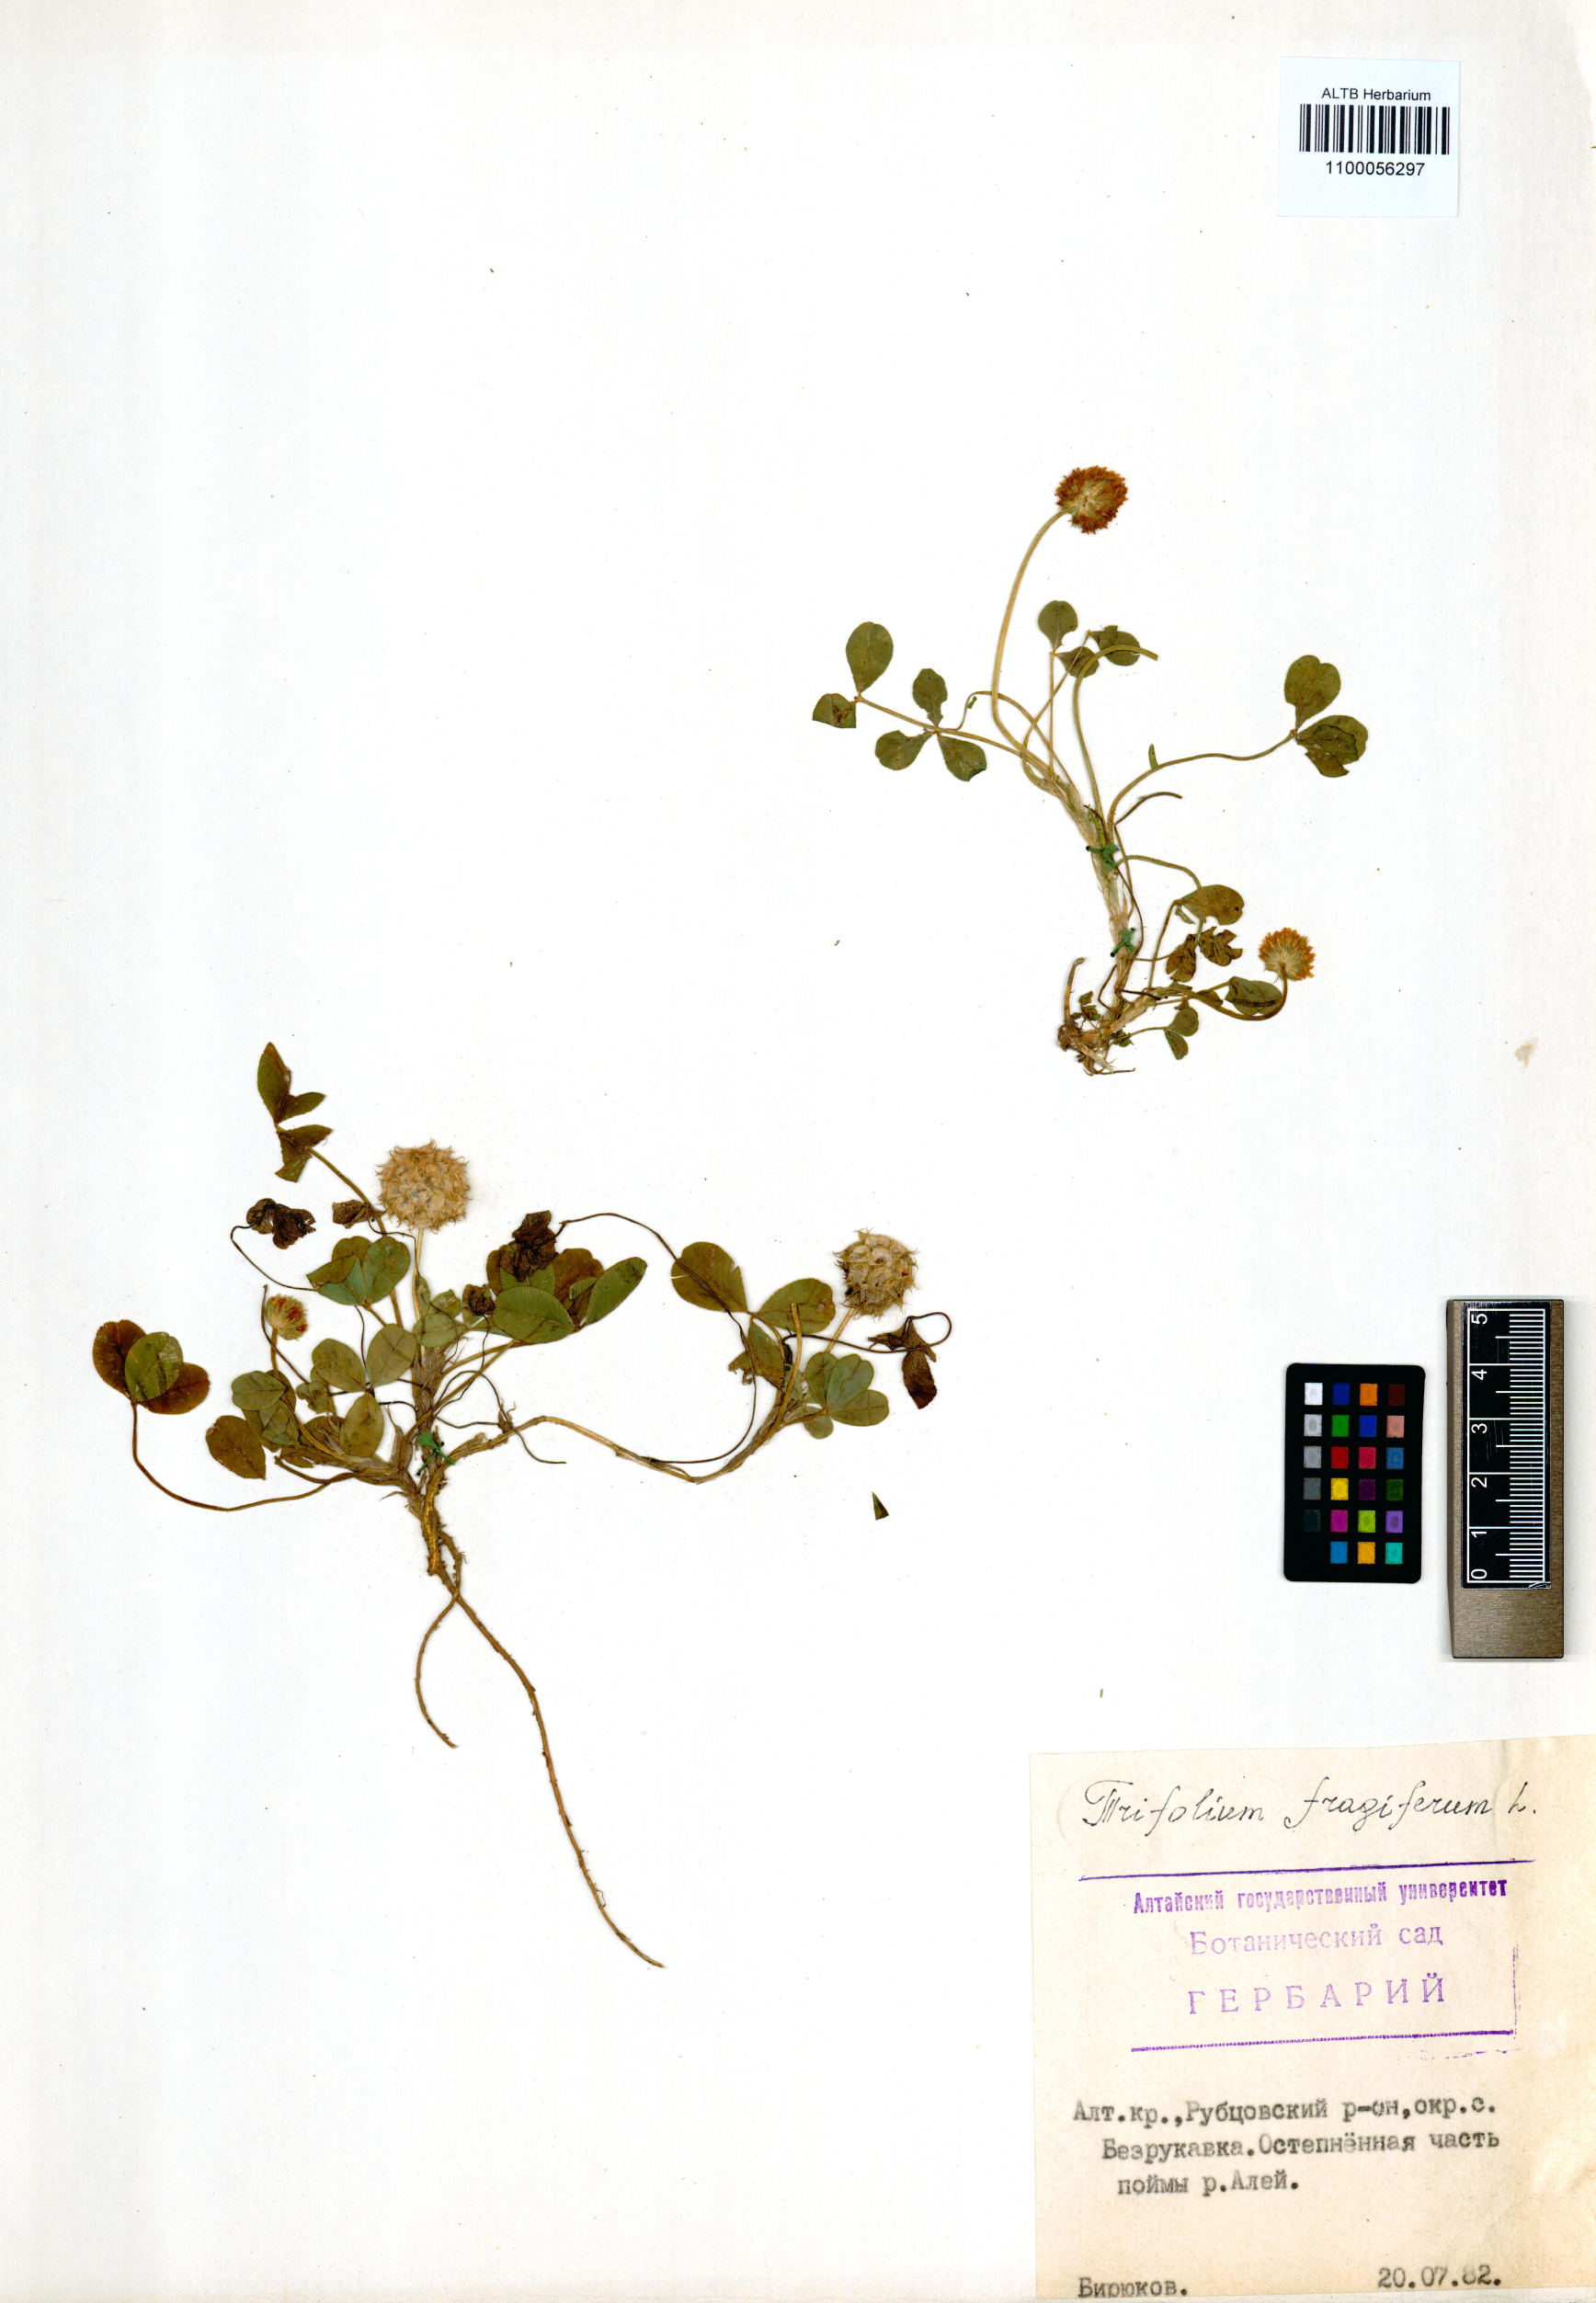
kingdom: Plantae
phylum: Tracheophyta
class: Magnoliopsida
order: Fabales
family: Fabaceae
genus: Trifolium
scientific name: Trifolium fragiferum
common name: Strawberry clover
